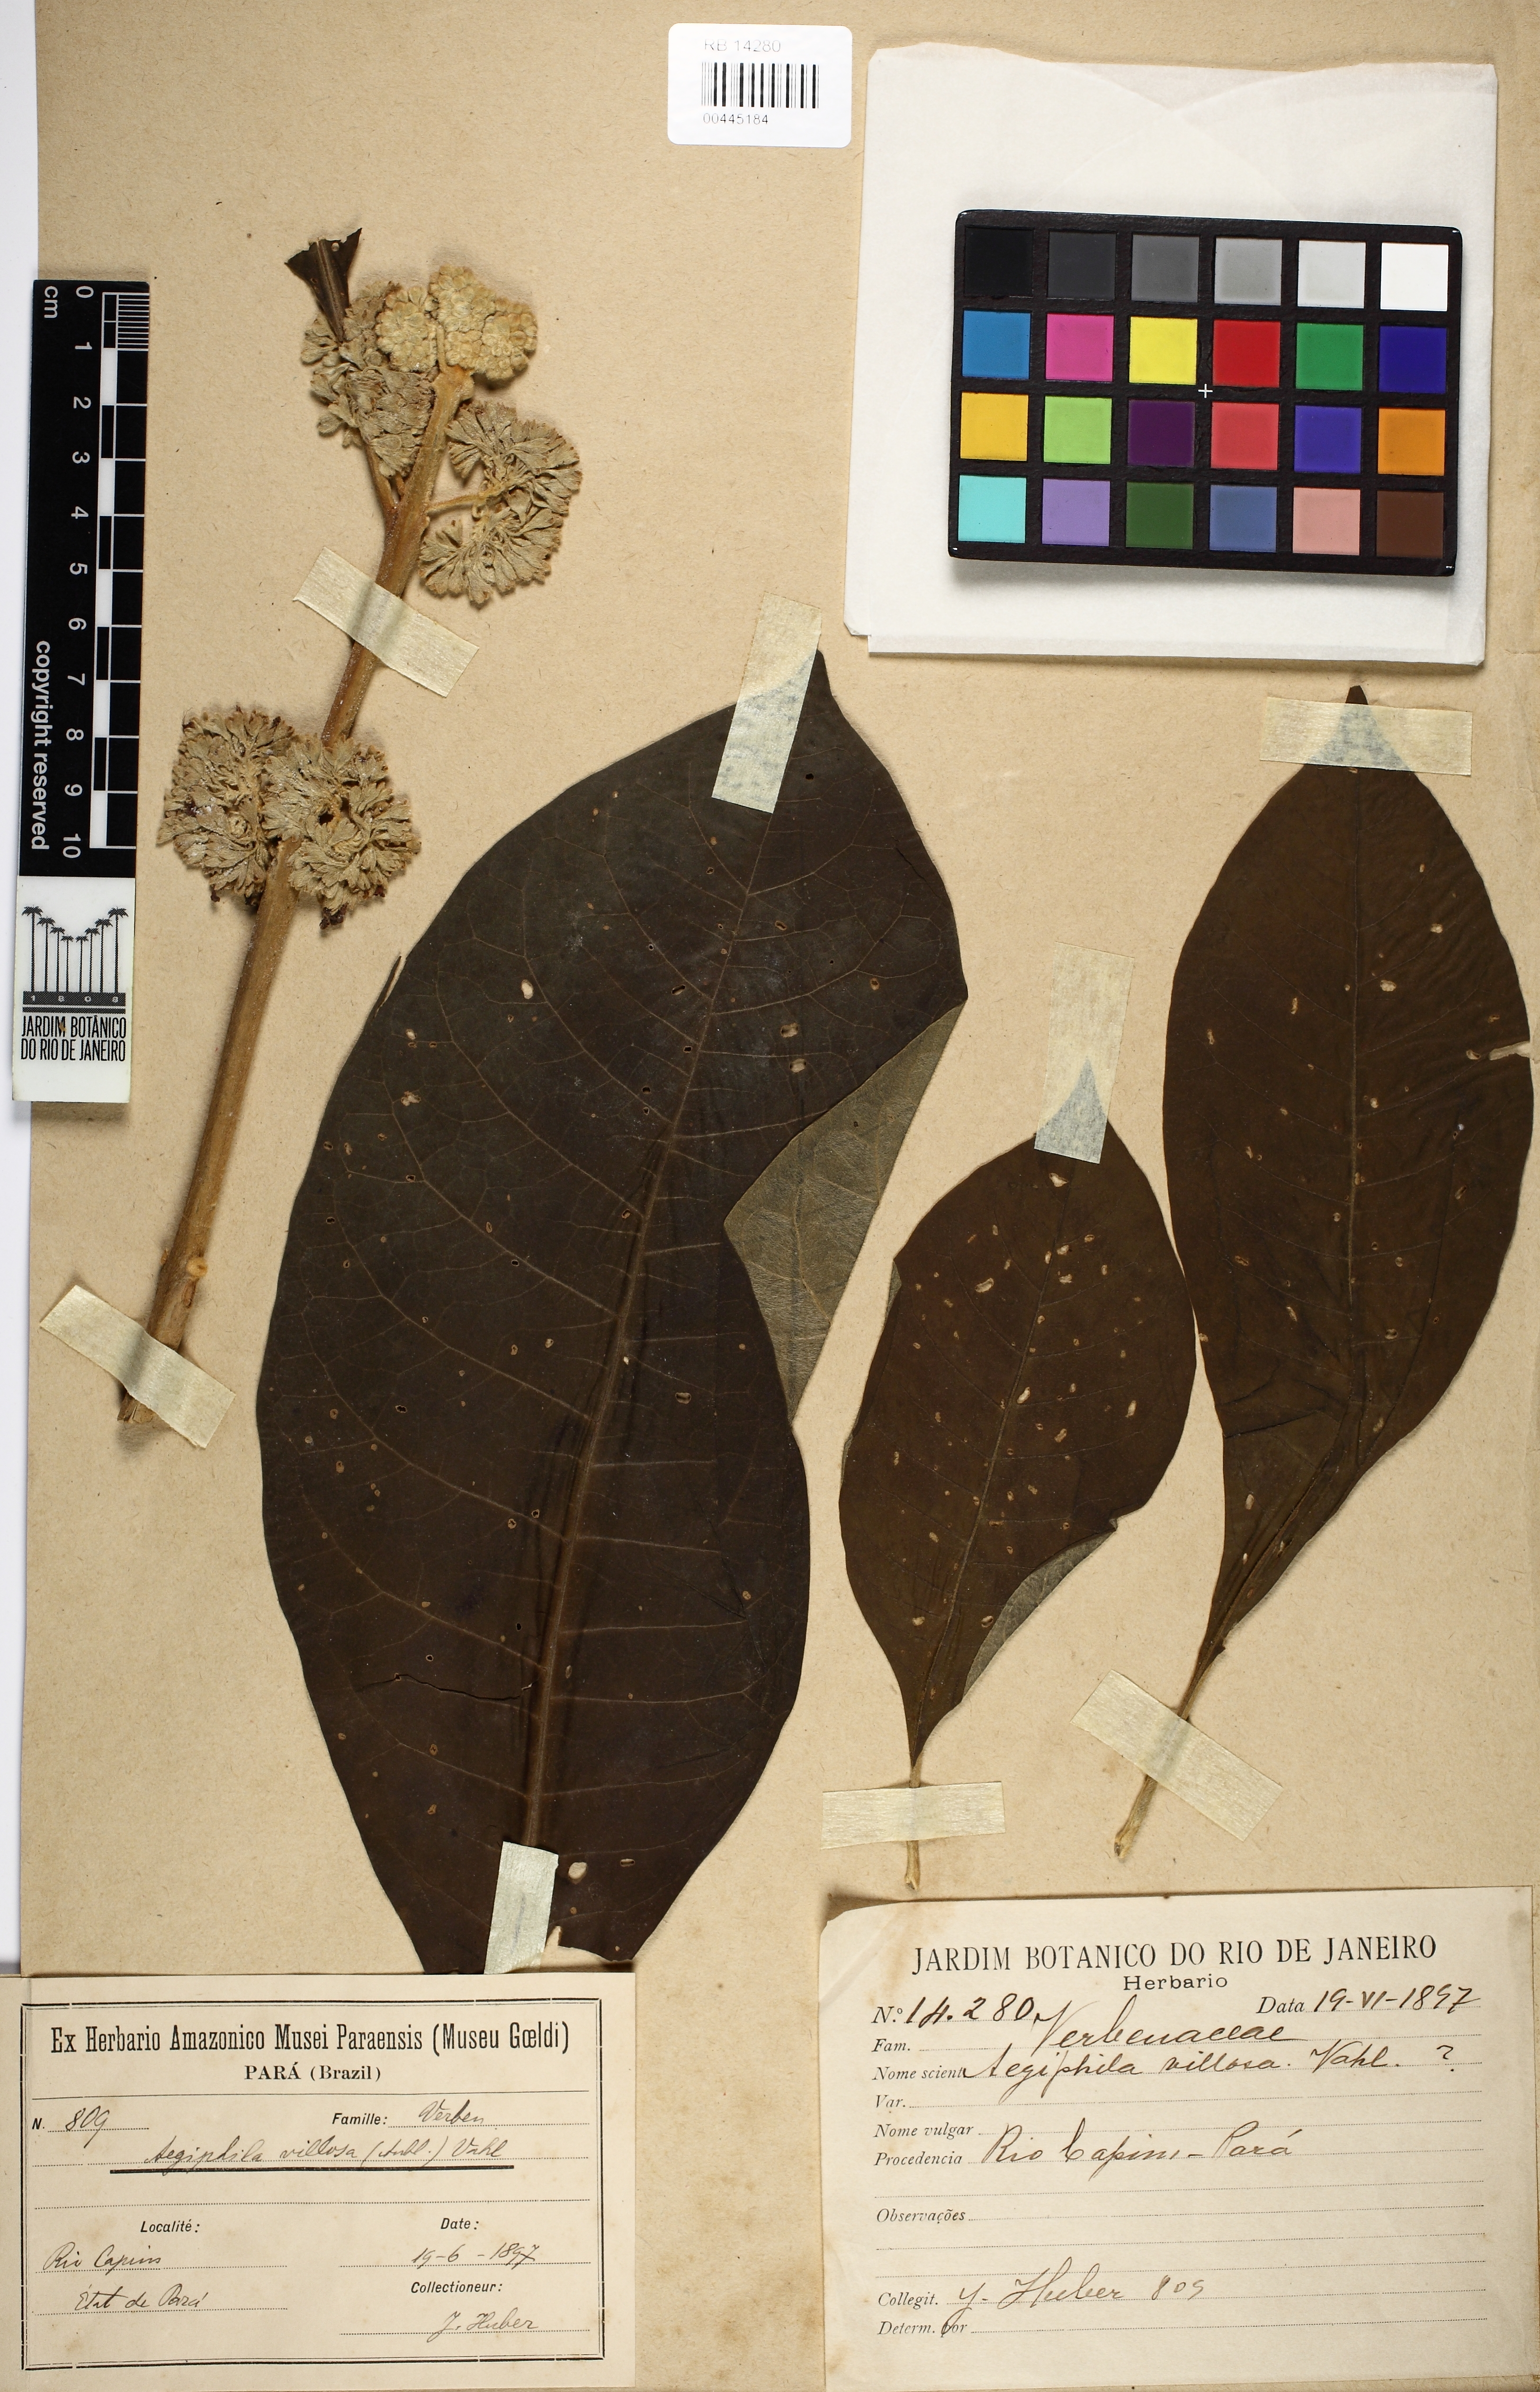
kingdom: Plantae
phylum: Tracheophyta
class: Magnoliopsida
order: Lamiales
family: Lamiaceae
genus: Aegiphila
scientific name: Aegiphila villosa
